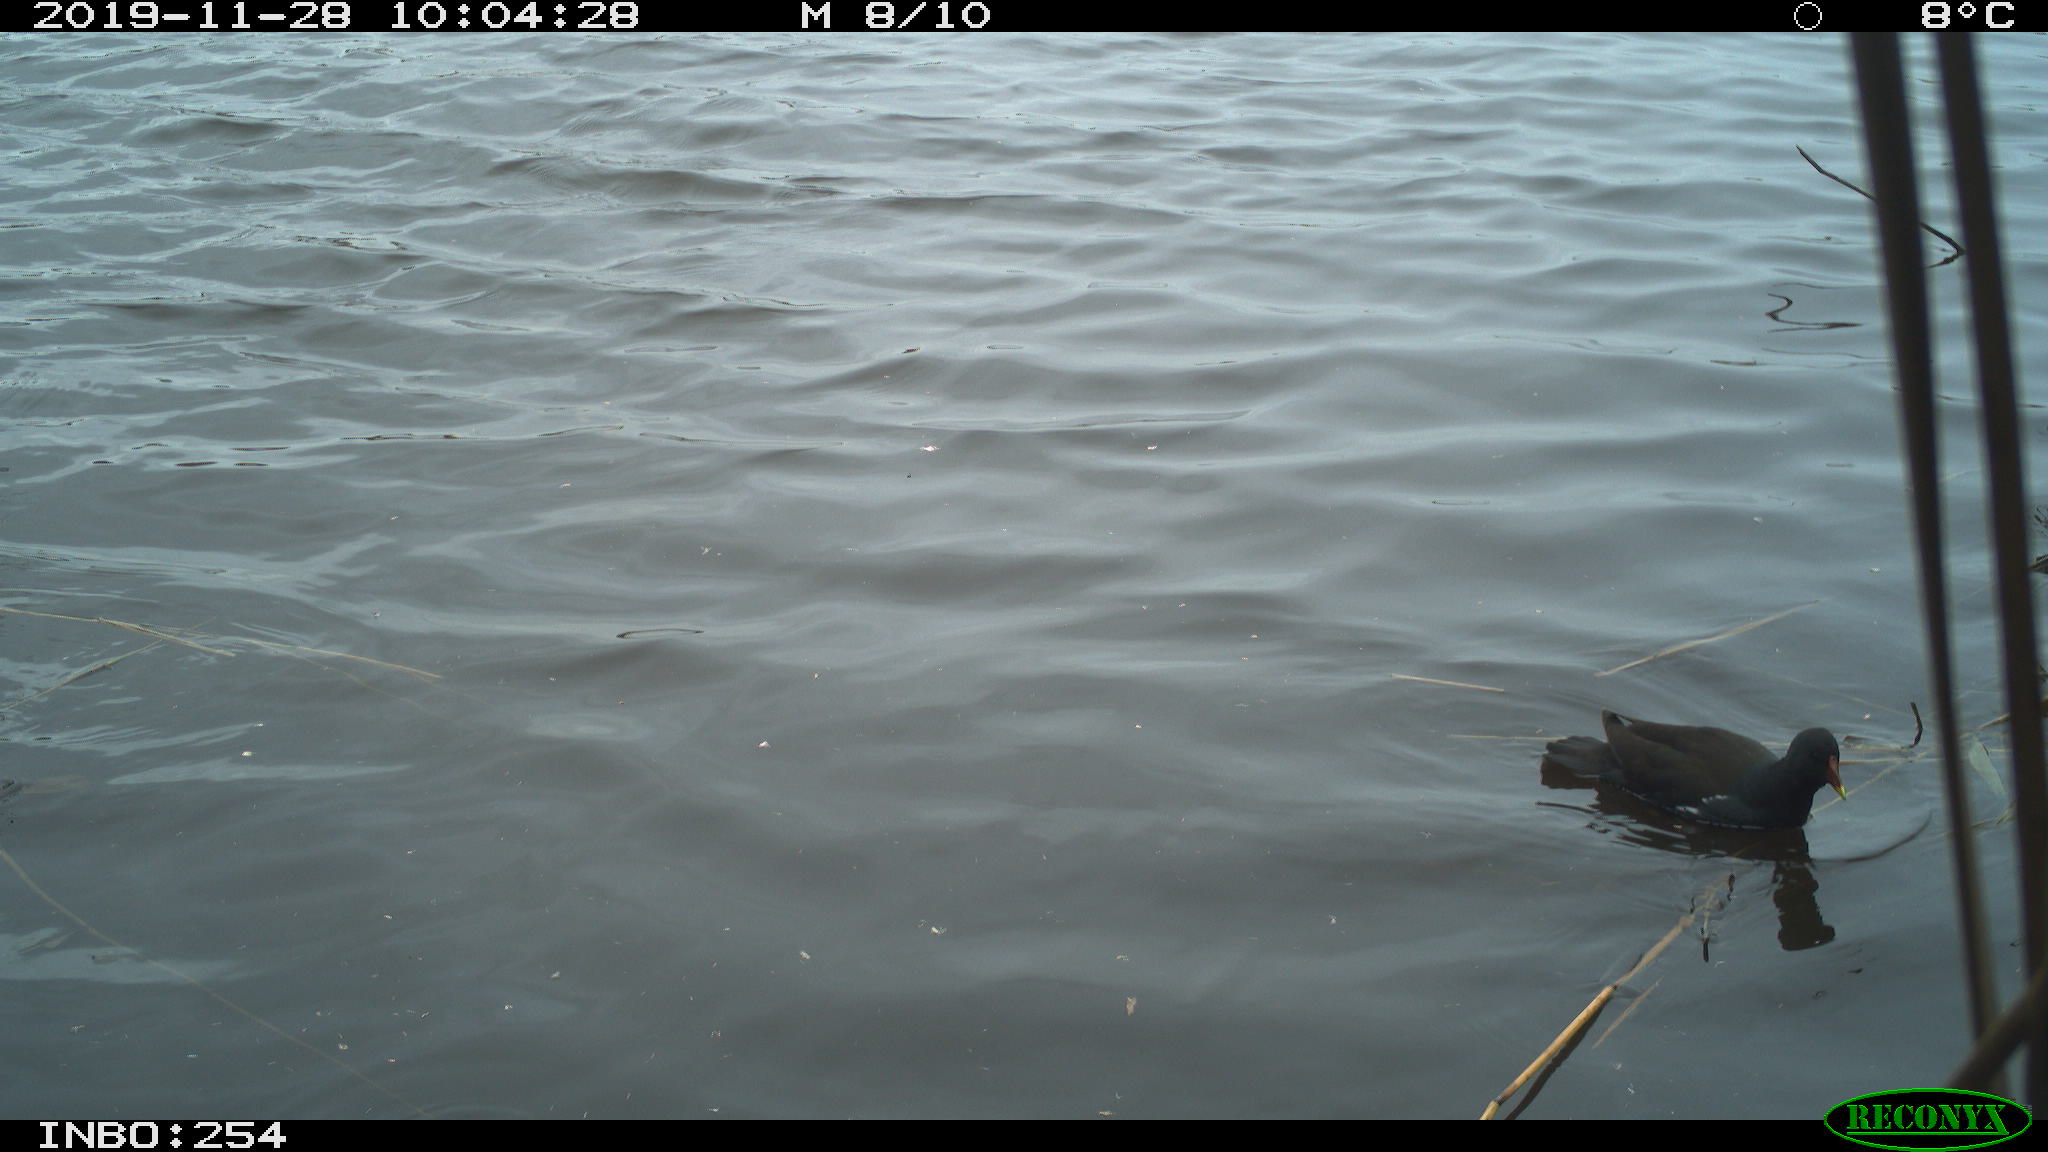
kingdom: Animalia
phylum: Chordata
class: Aves
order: Gruiformes
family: Rallidae
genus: Gallinula
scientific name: Gallinula chloropus
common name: Common moorhen
